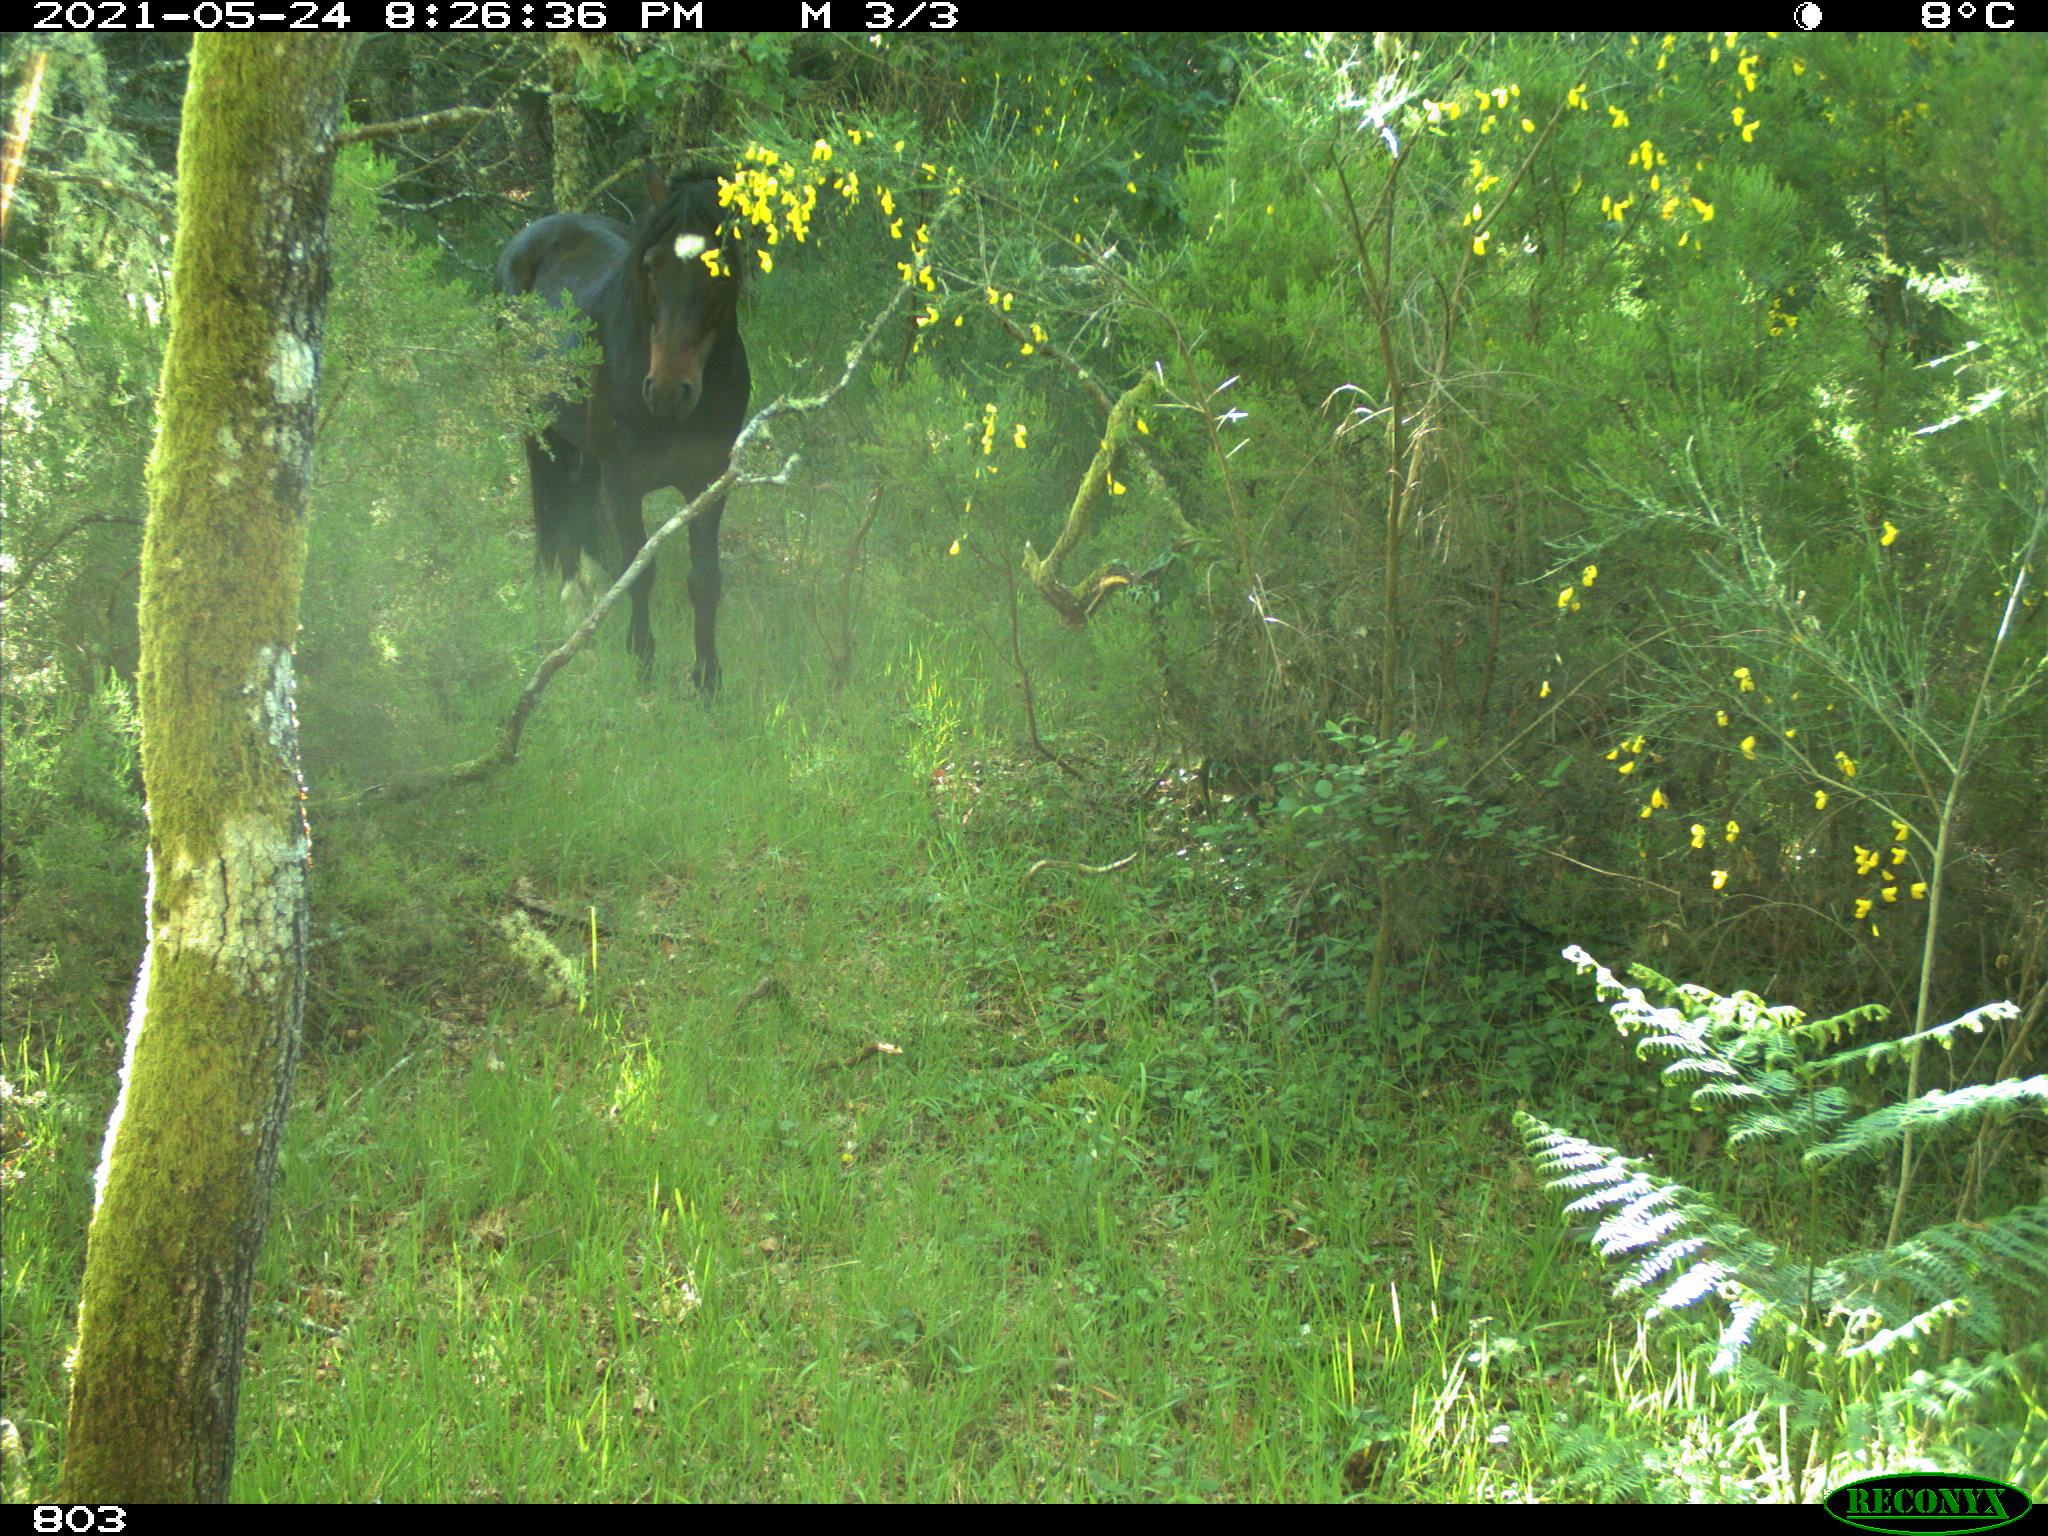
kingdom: Animalia
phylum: Chordata
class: Mammalia
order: Perissodactyla
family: Equidae
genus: Equus
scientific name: Equus caballus
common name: Horse
